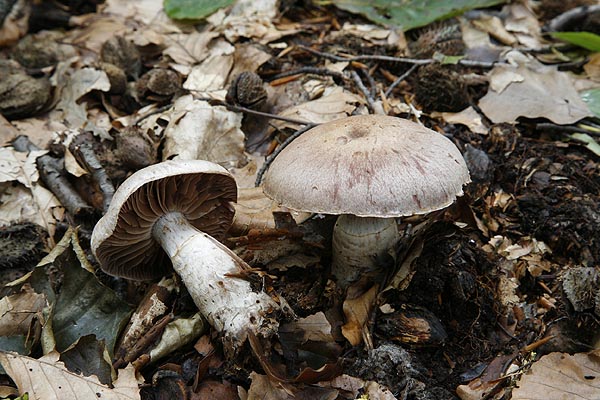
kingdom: Fungi
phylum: Basidiomycota
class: Agaricomycetes
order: Agaricales
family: Cortinariaceae
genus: Cortinarius
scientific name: Cortinarius torvus
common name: champignonagtig slørhat
